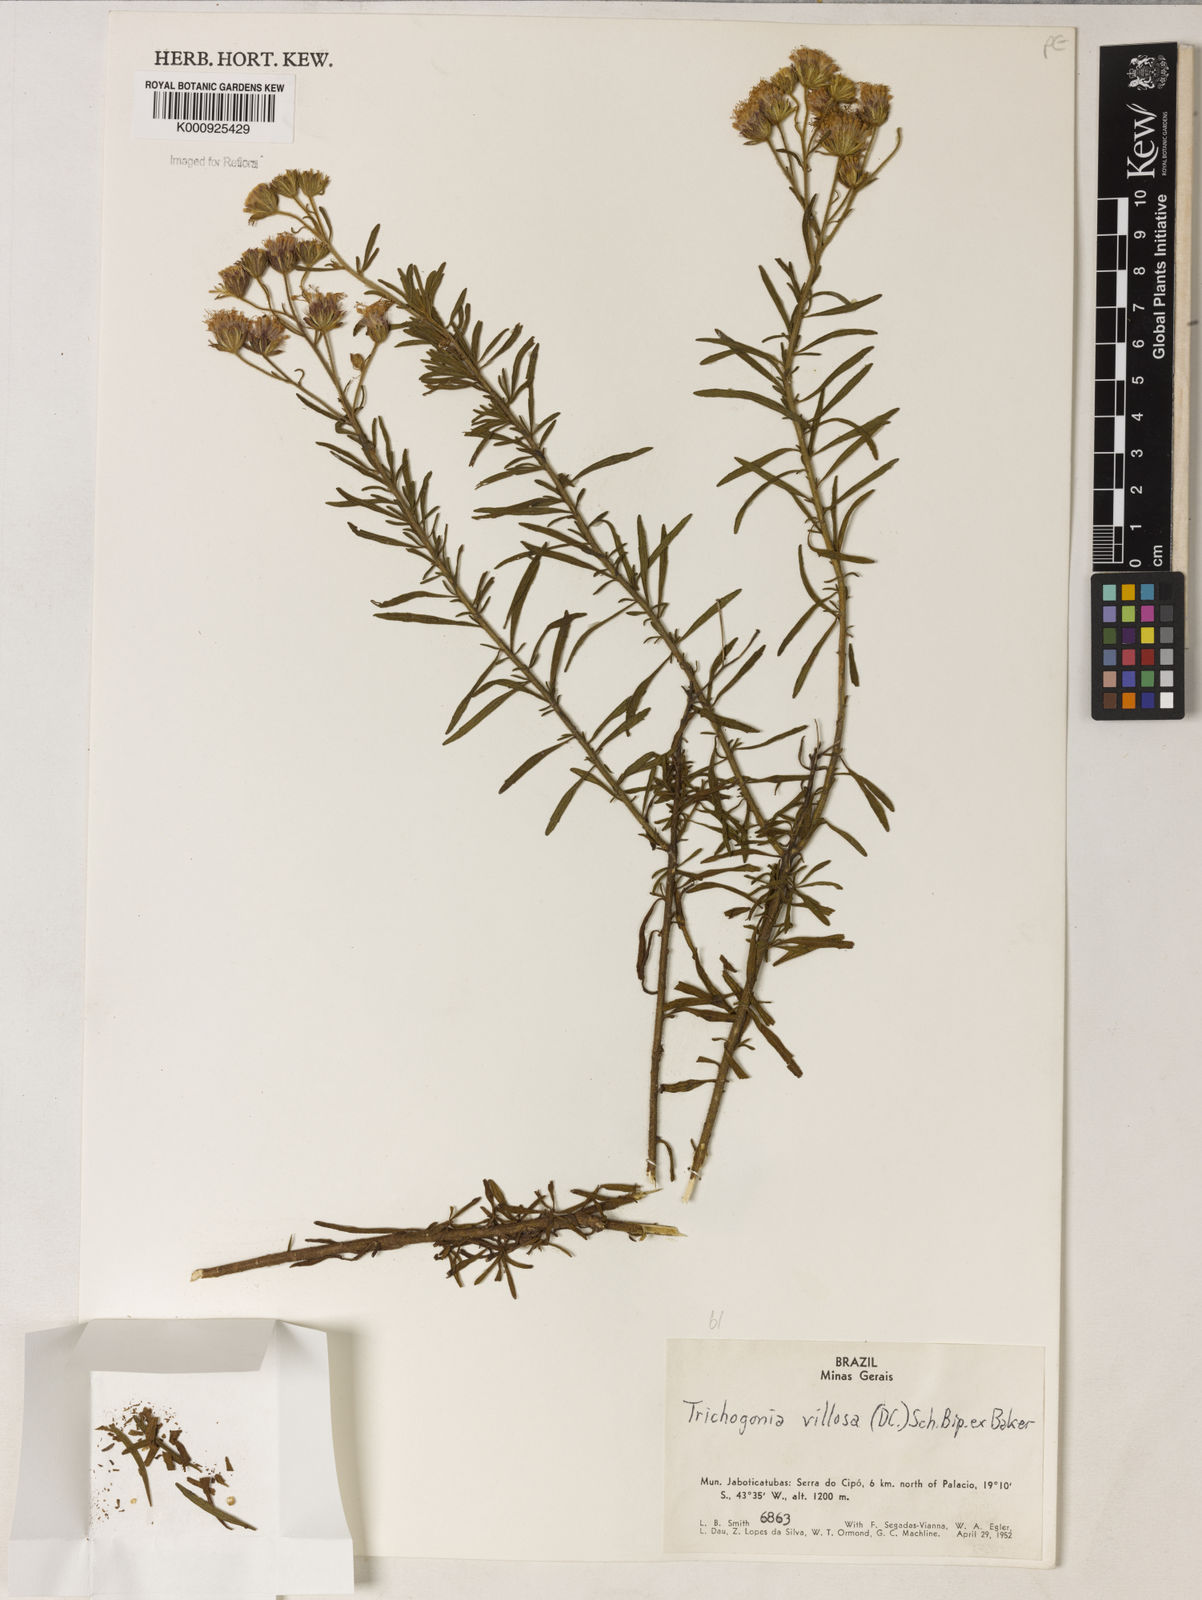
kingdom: Plantae
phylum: Tracheophyta
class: Magnoliopsida
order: Asterales
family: Asteraceae
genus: Trichogonia
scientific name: Trichogonia villosa
